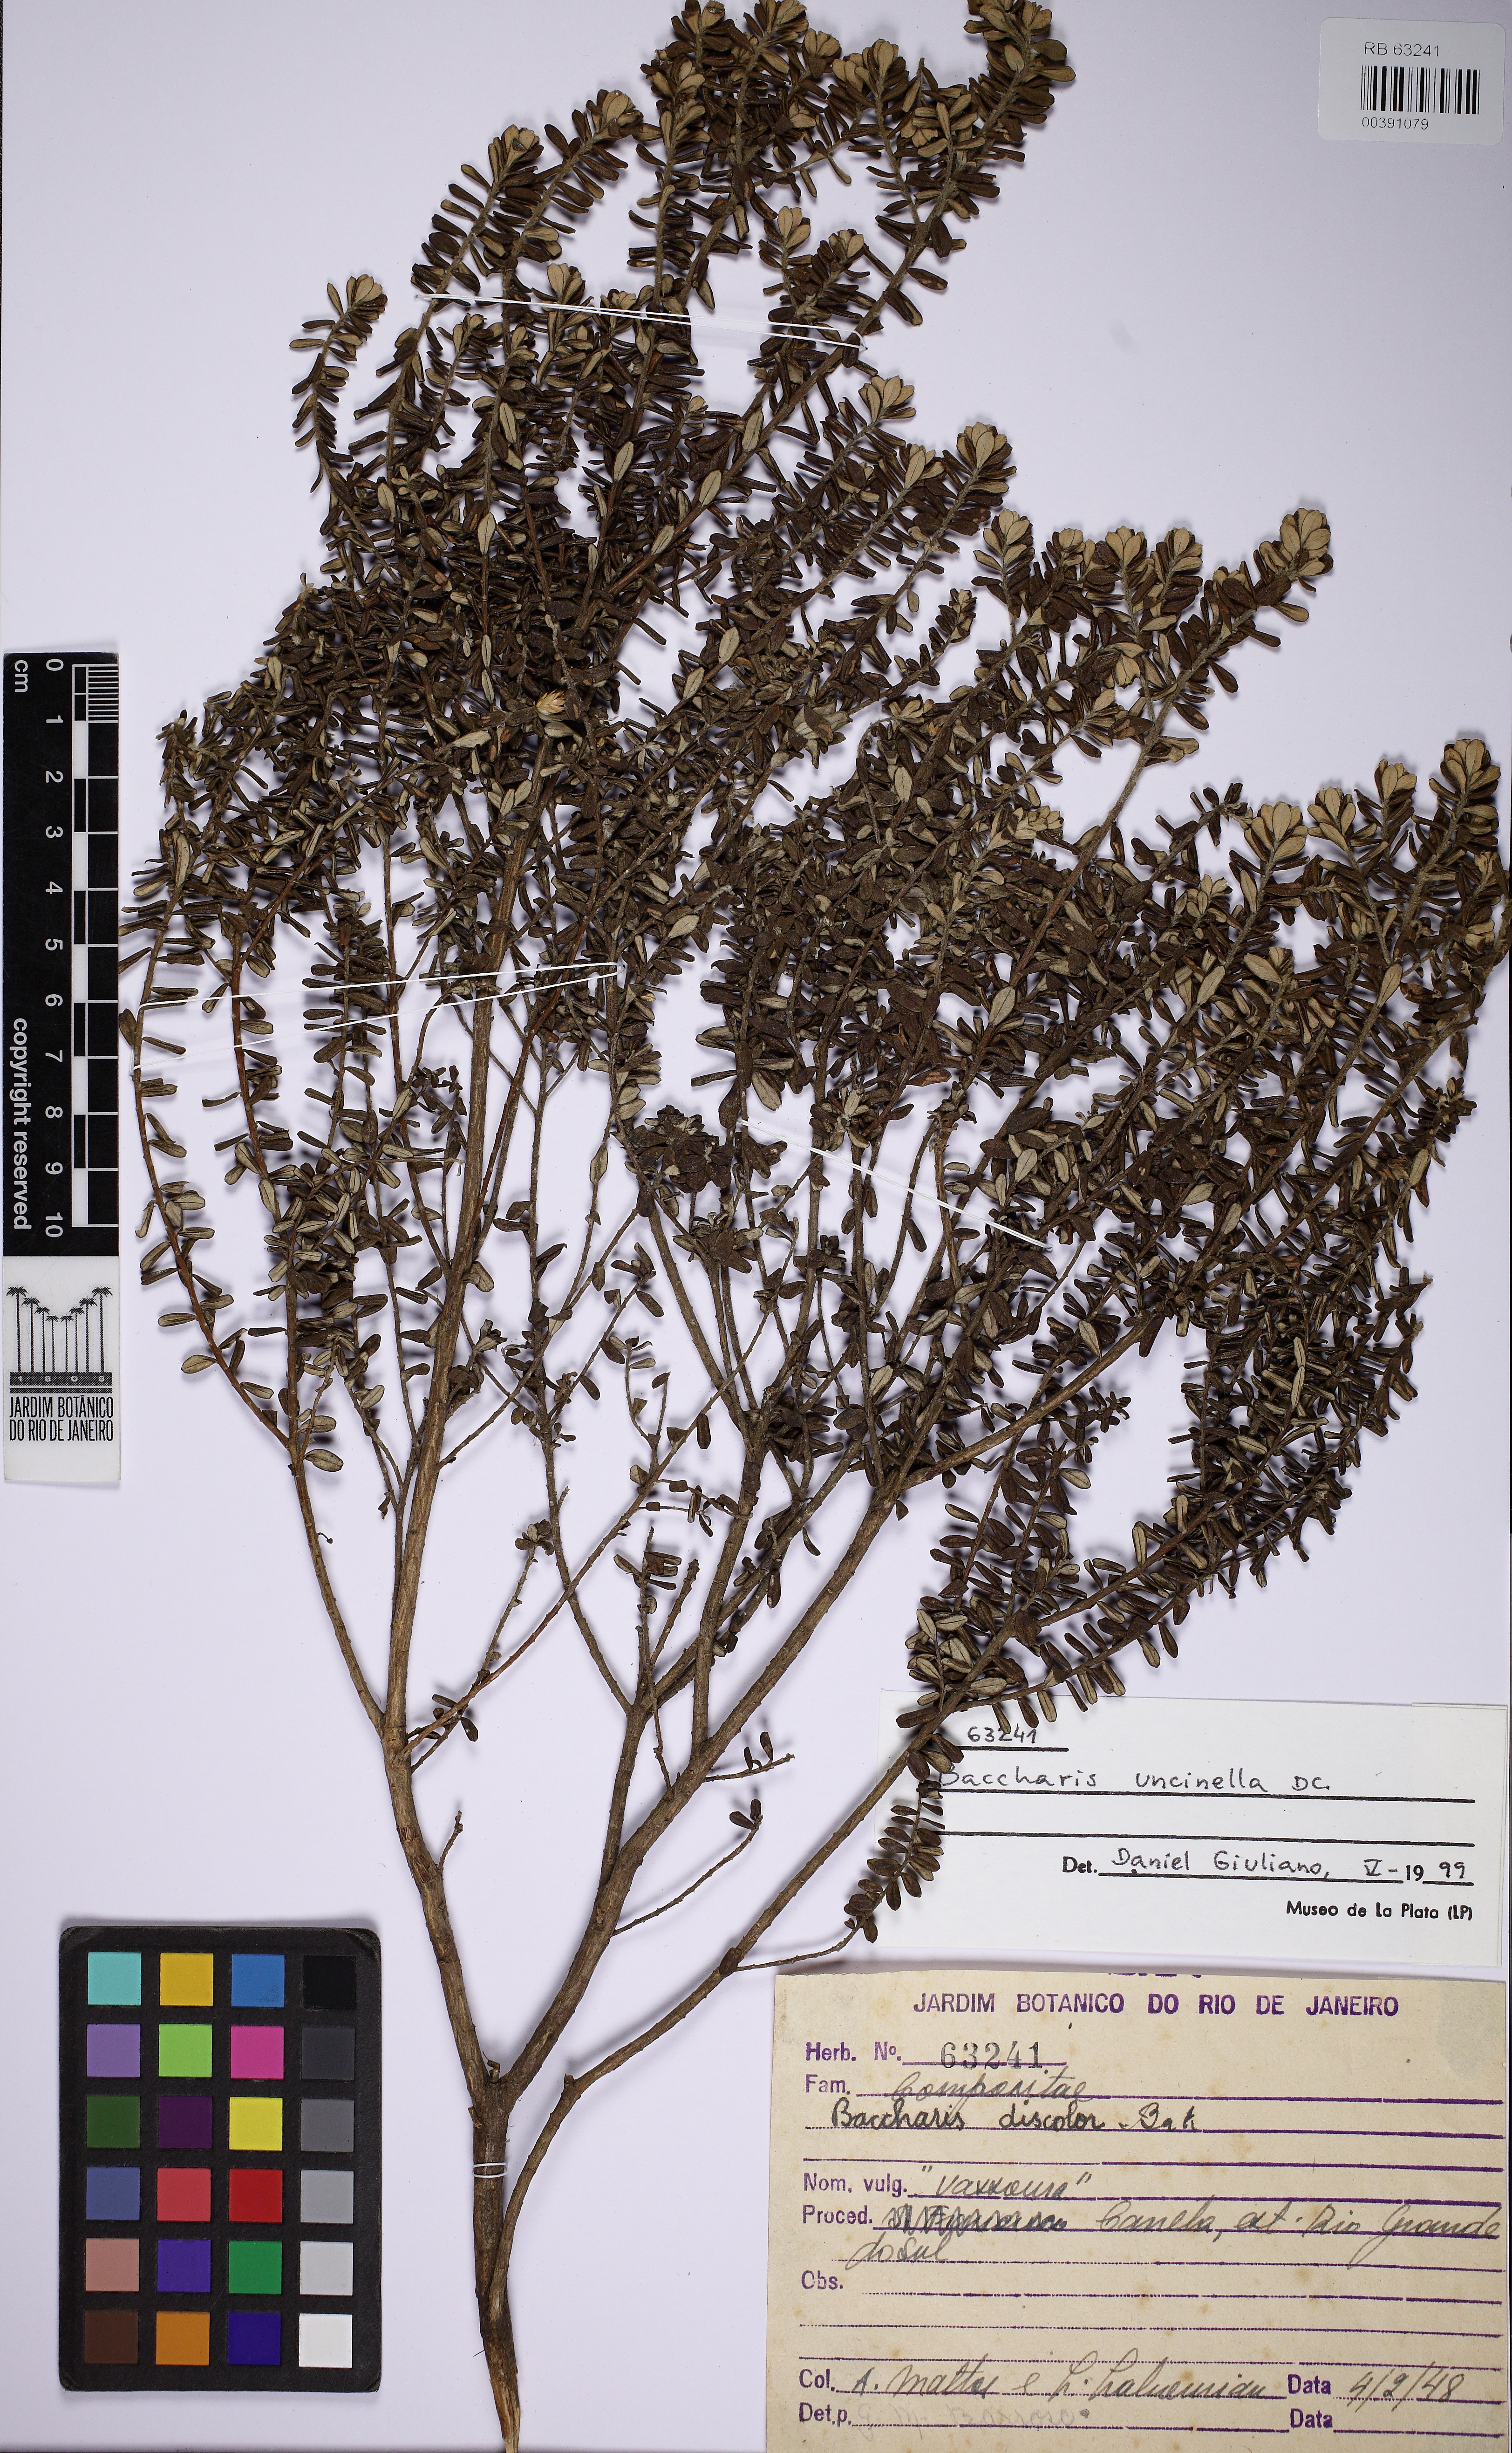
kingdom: Plantae
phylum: Tracheophyta
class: Magnoliopsida
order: Asterales
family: Asteraceae
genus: Baccharis
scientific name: Baccharis uncinella
